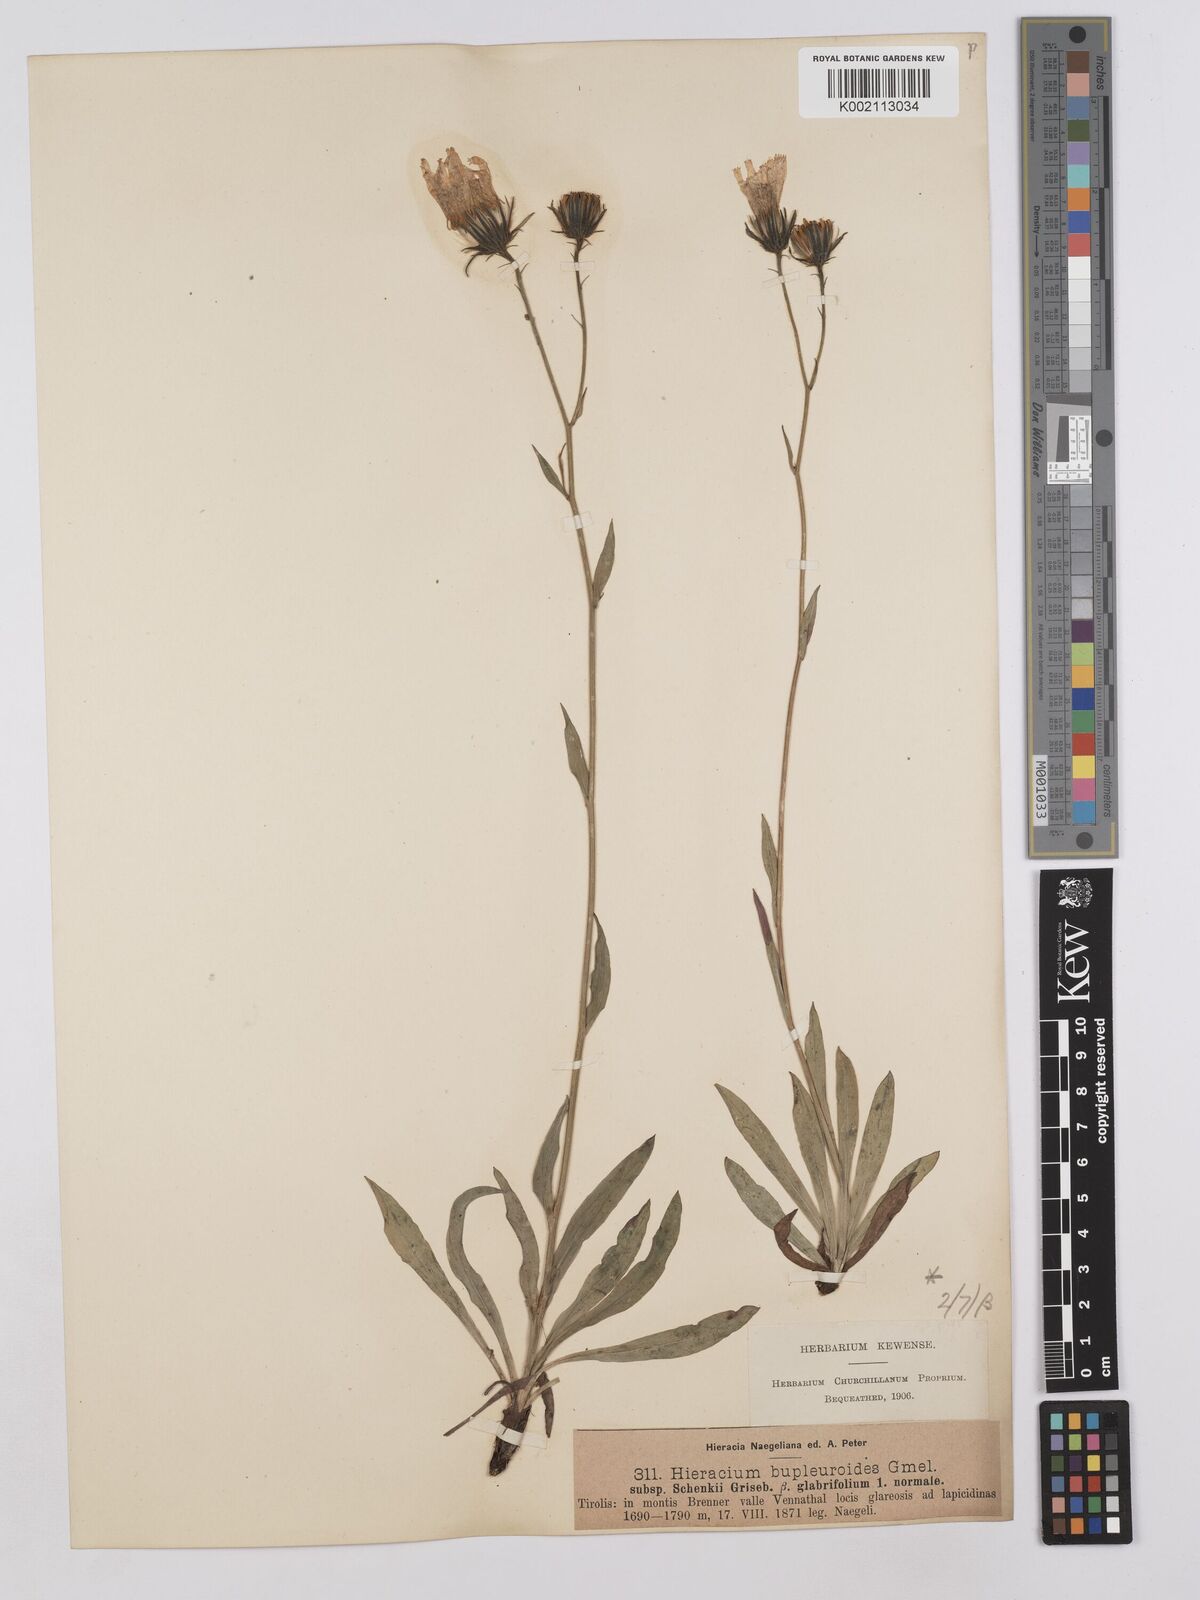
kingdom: Plantae
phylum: Tracheophyta
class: Magnoliopsida
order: Asterales
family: Asteraceae
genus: Hieracium
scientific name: Hieracium bupleuroides
